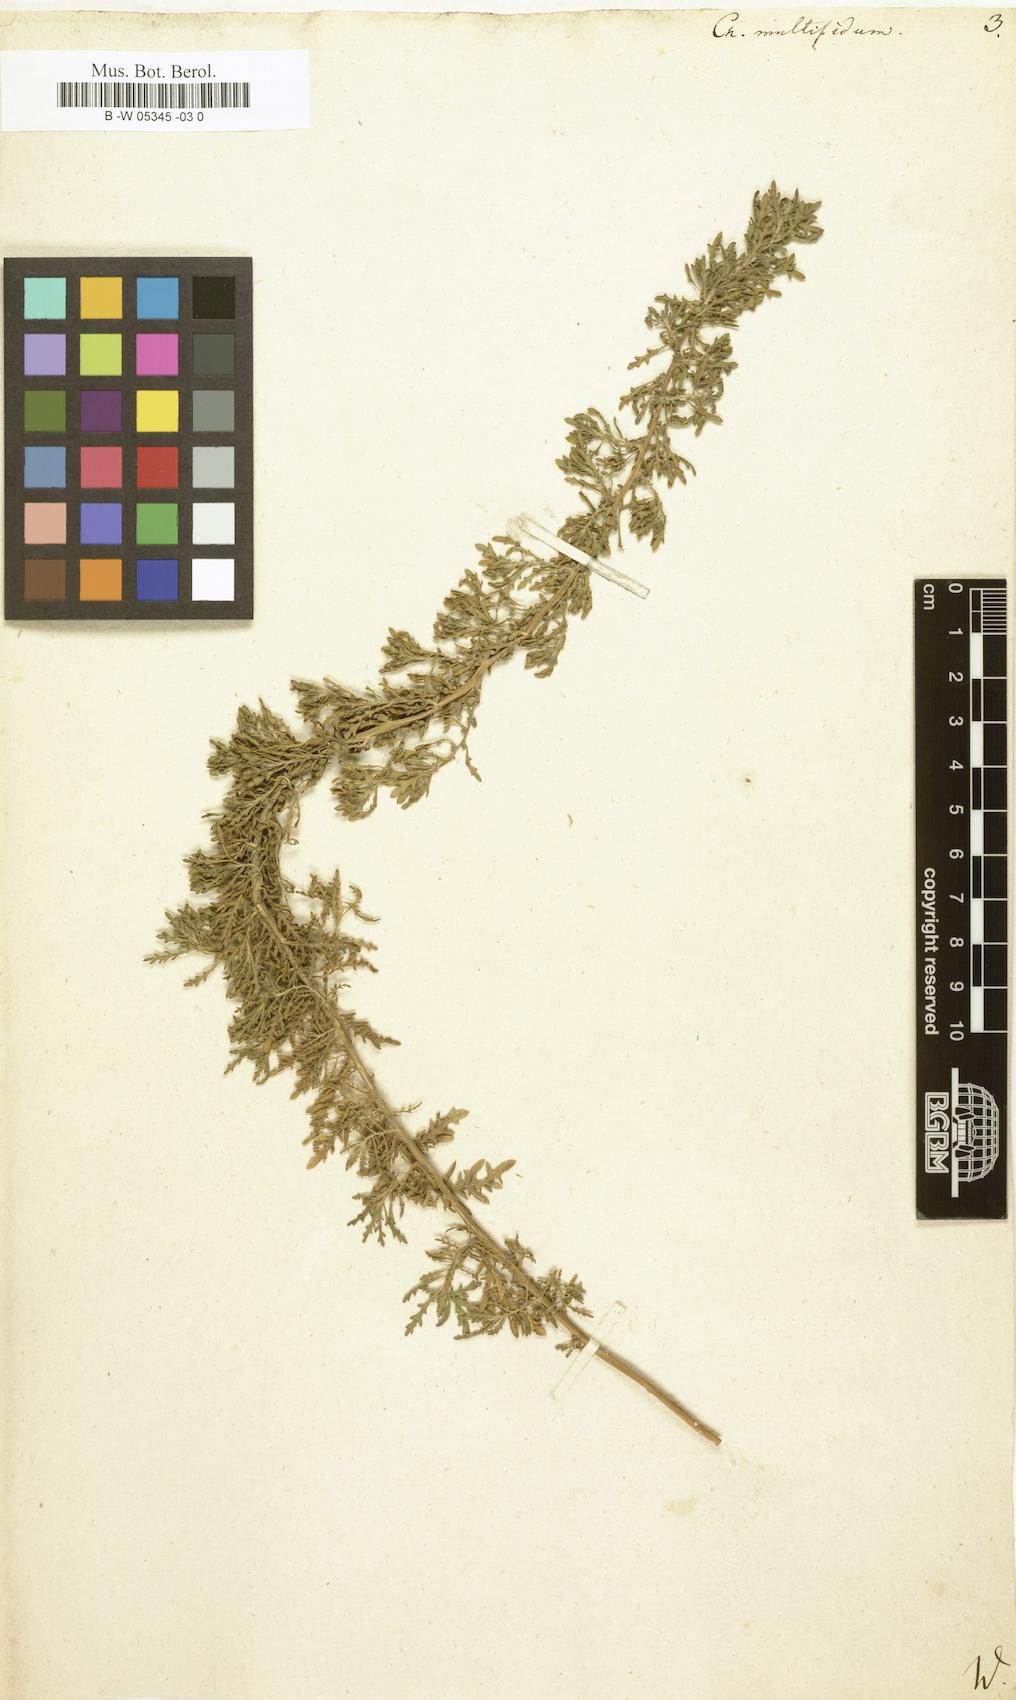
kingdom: Plantae
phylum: Tracheophyta
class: Magnoliopsida
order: Caryophyllales
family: Amaranthaceae
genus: Dysphania
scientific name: Dysphania multifida
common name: Cutleaf goosefoot
